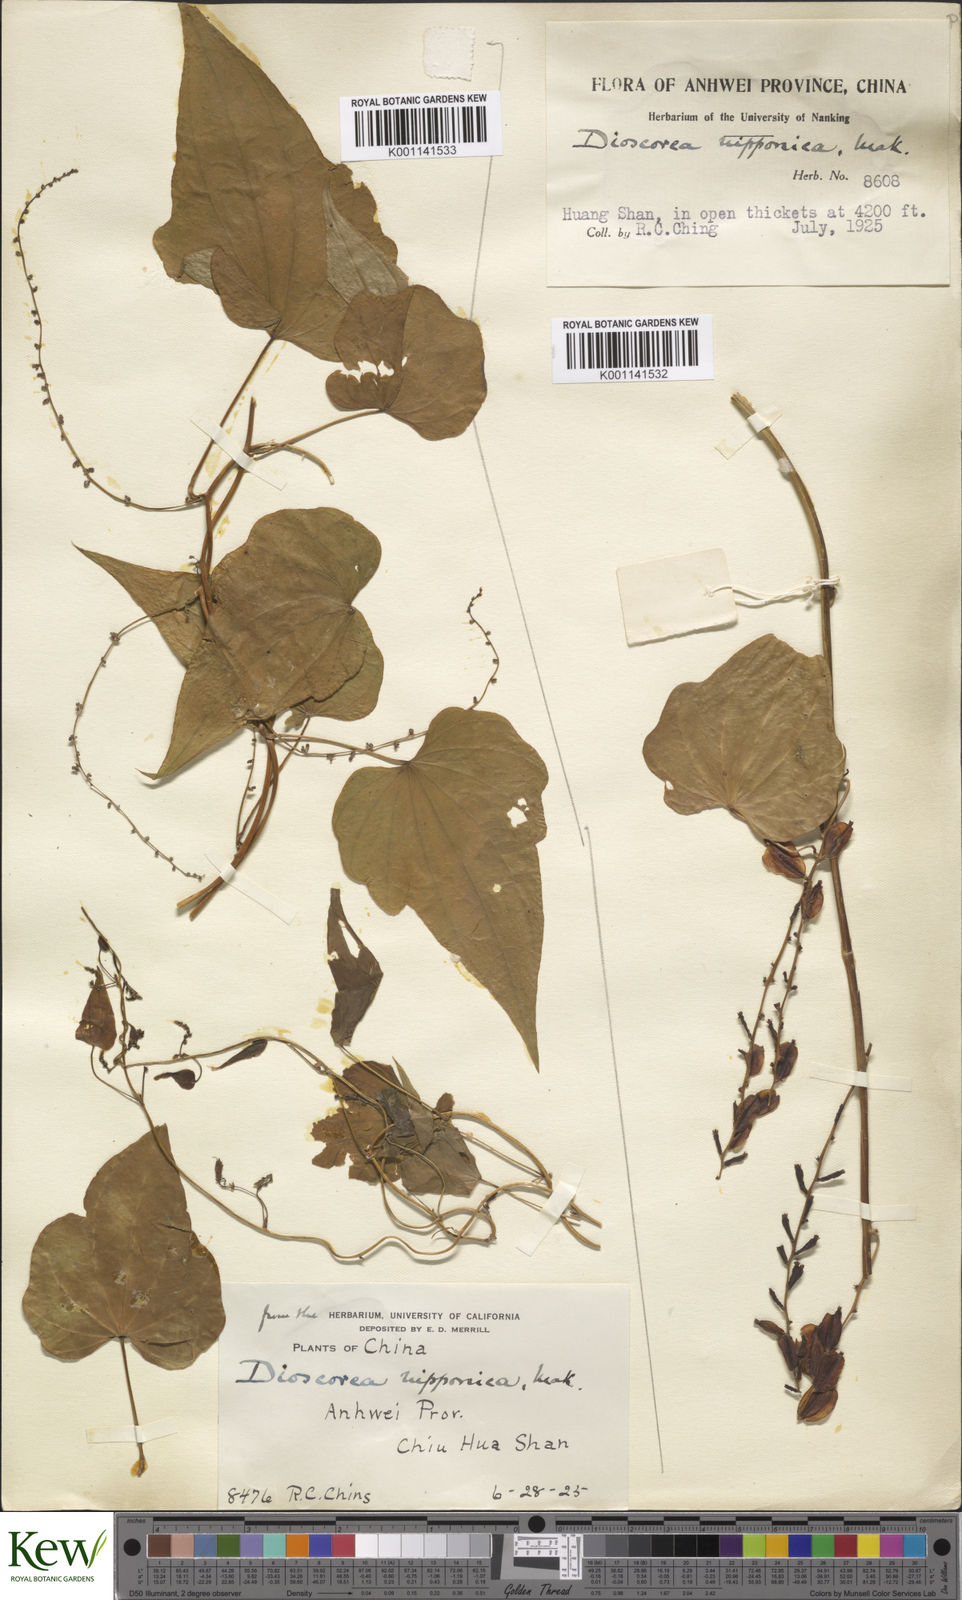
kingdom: Plantae
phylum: Tracheophyta
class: Liliopsida
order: Dioscoreales
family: Dioscoreaceae
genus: Dioscorea
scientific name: Dioscorea nipponica
